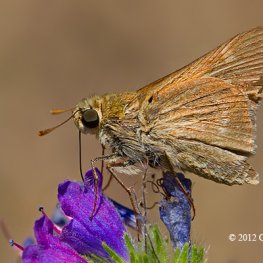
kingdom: Animalia
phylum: Arthropoda
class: Insecta
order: Lepidoptera
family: Hesperiidae
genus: Polites
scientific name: Polites
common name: Crossline Skipper
